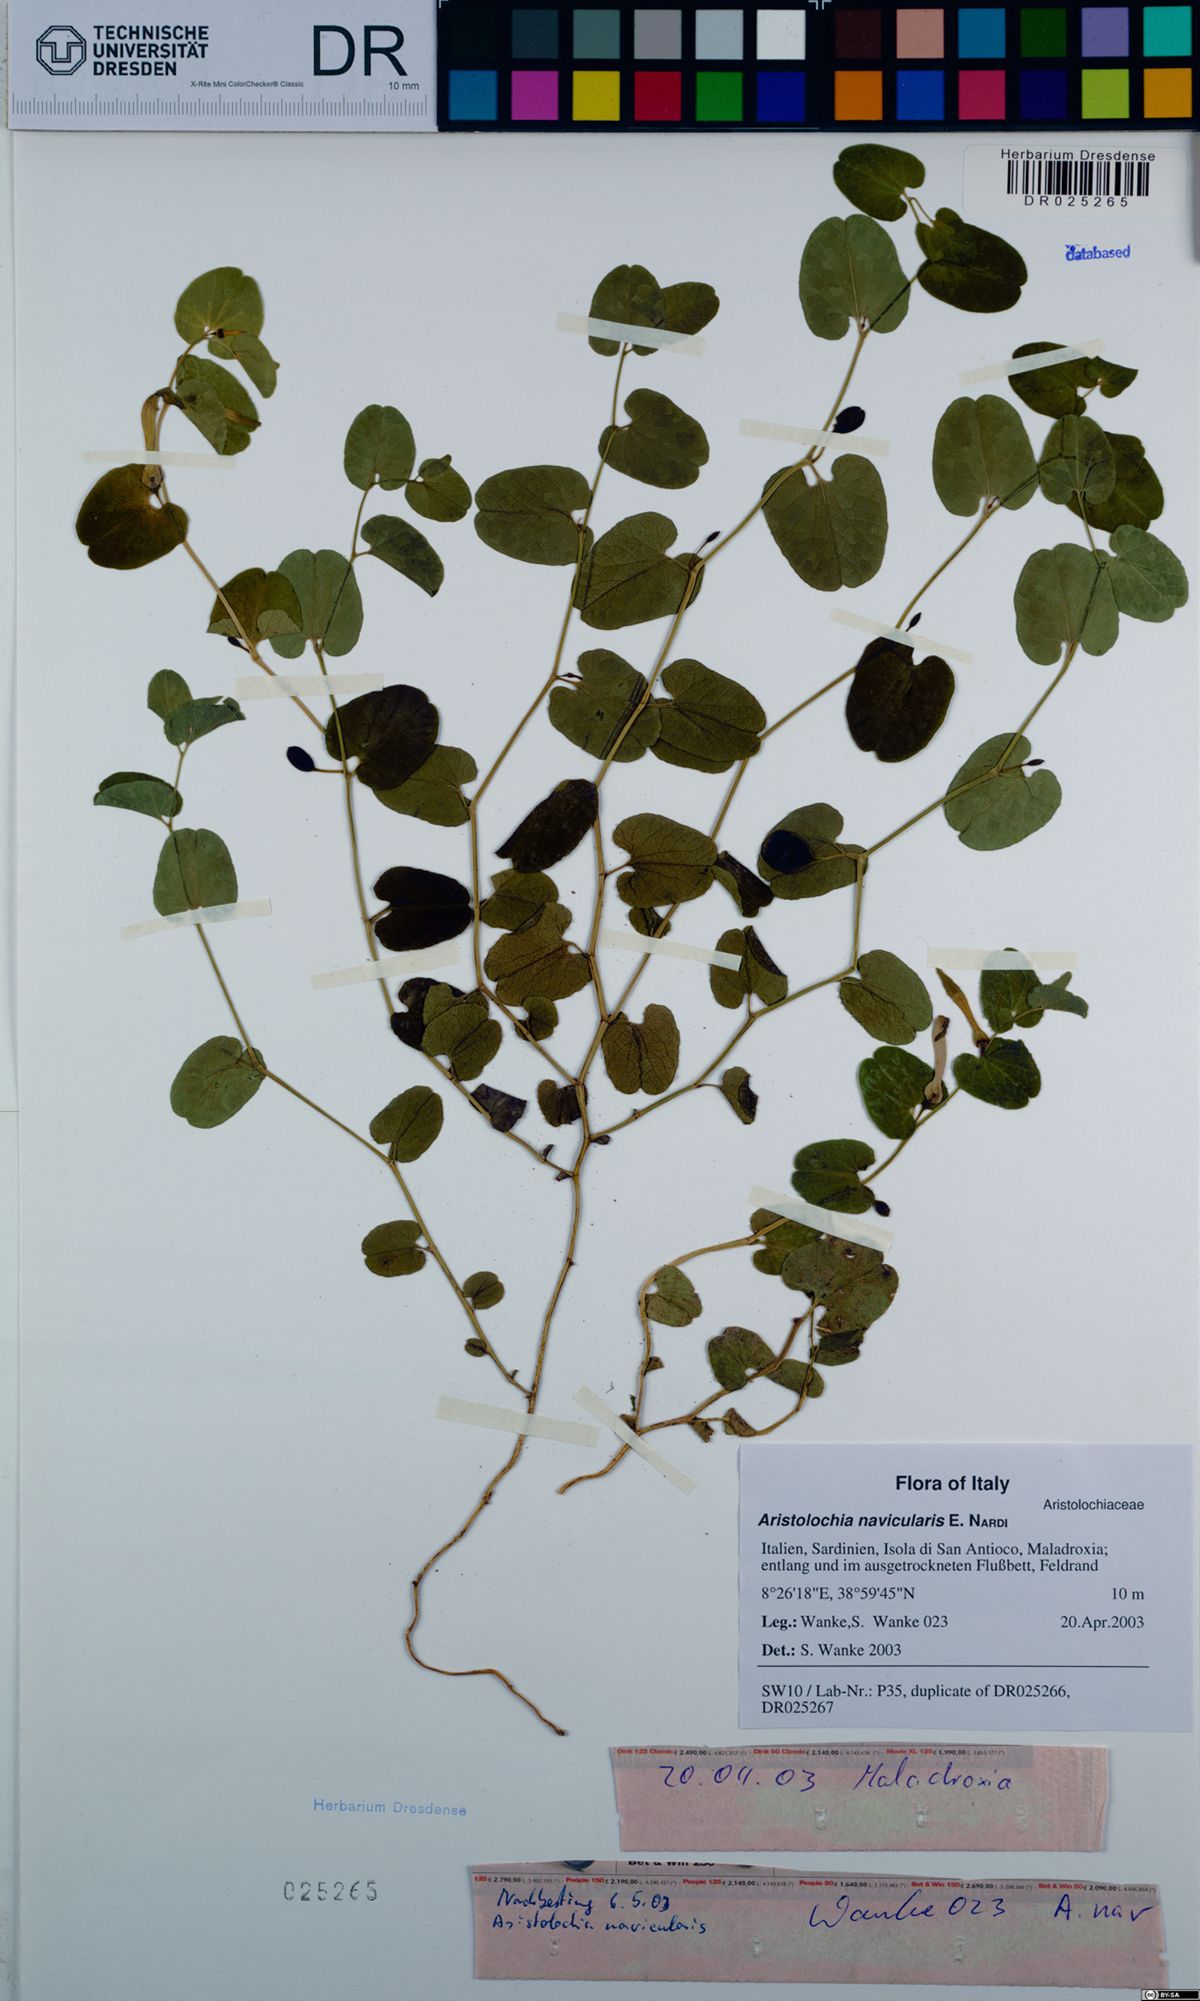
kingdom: Plantae
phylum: Tracheophyta
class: Magnoliopsida
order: Piperales
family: Aristolochiaceae
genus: Aristolochia
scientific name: Aristolochia navicularis
